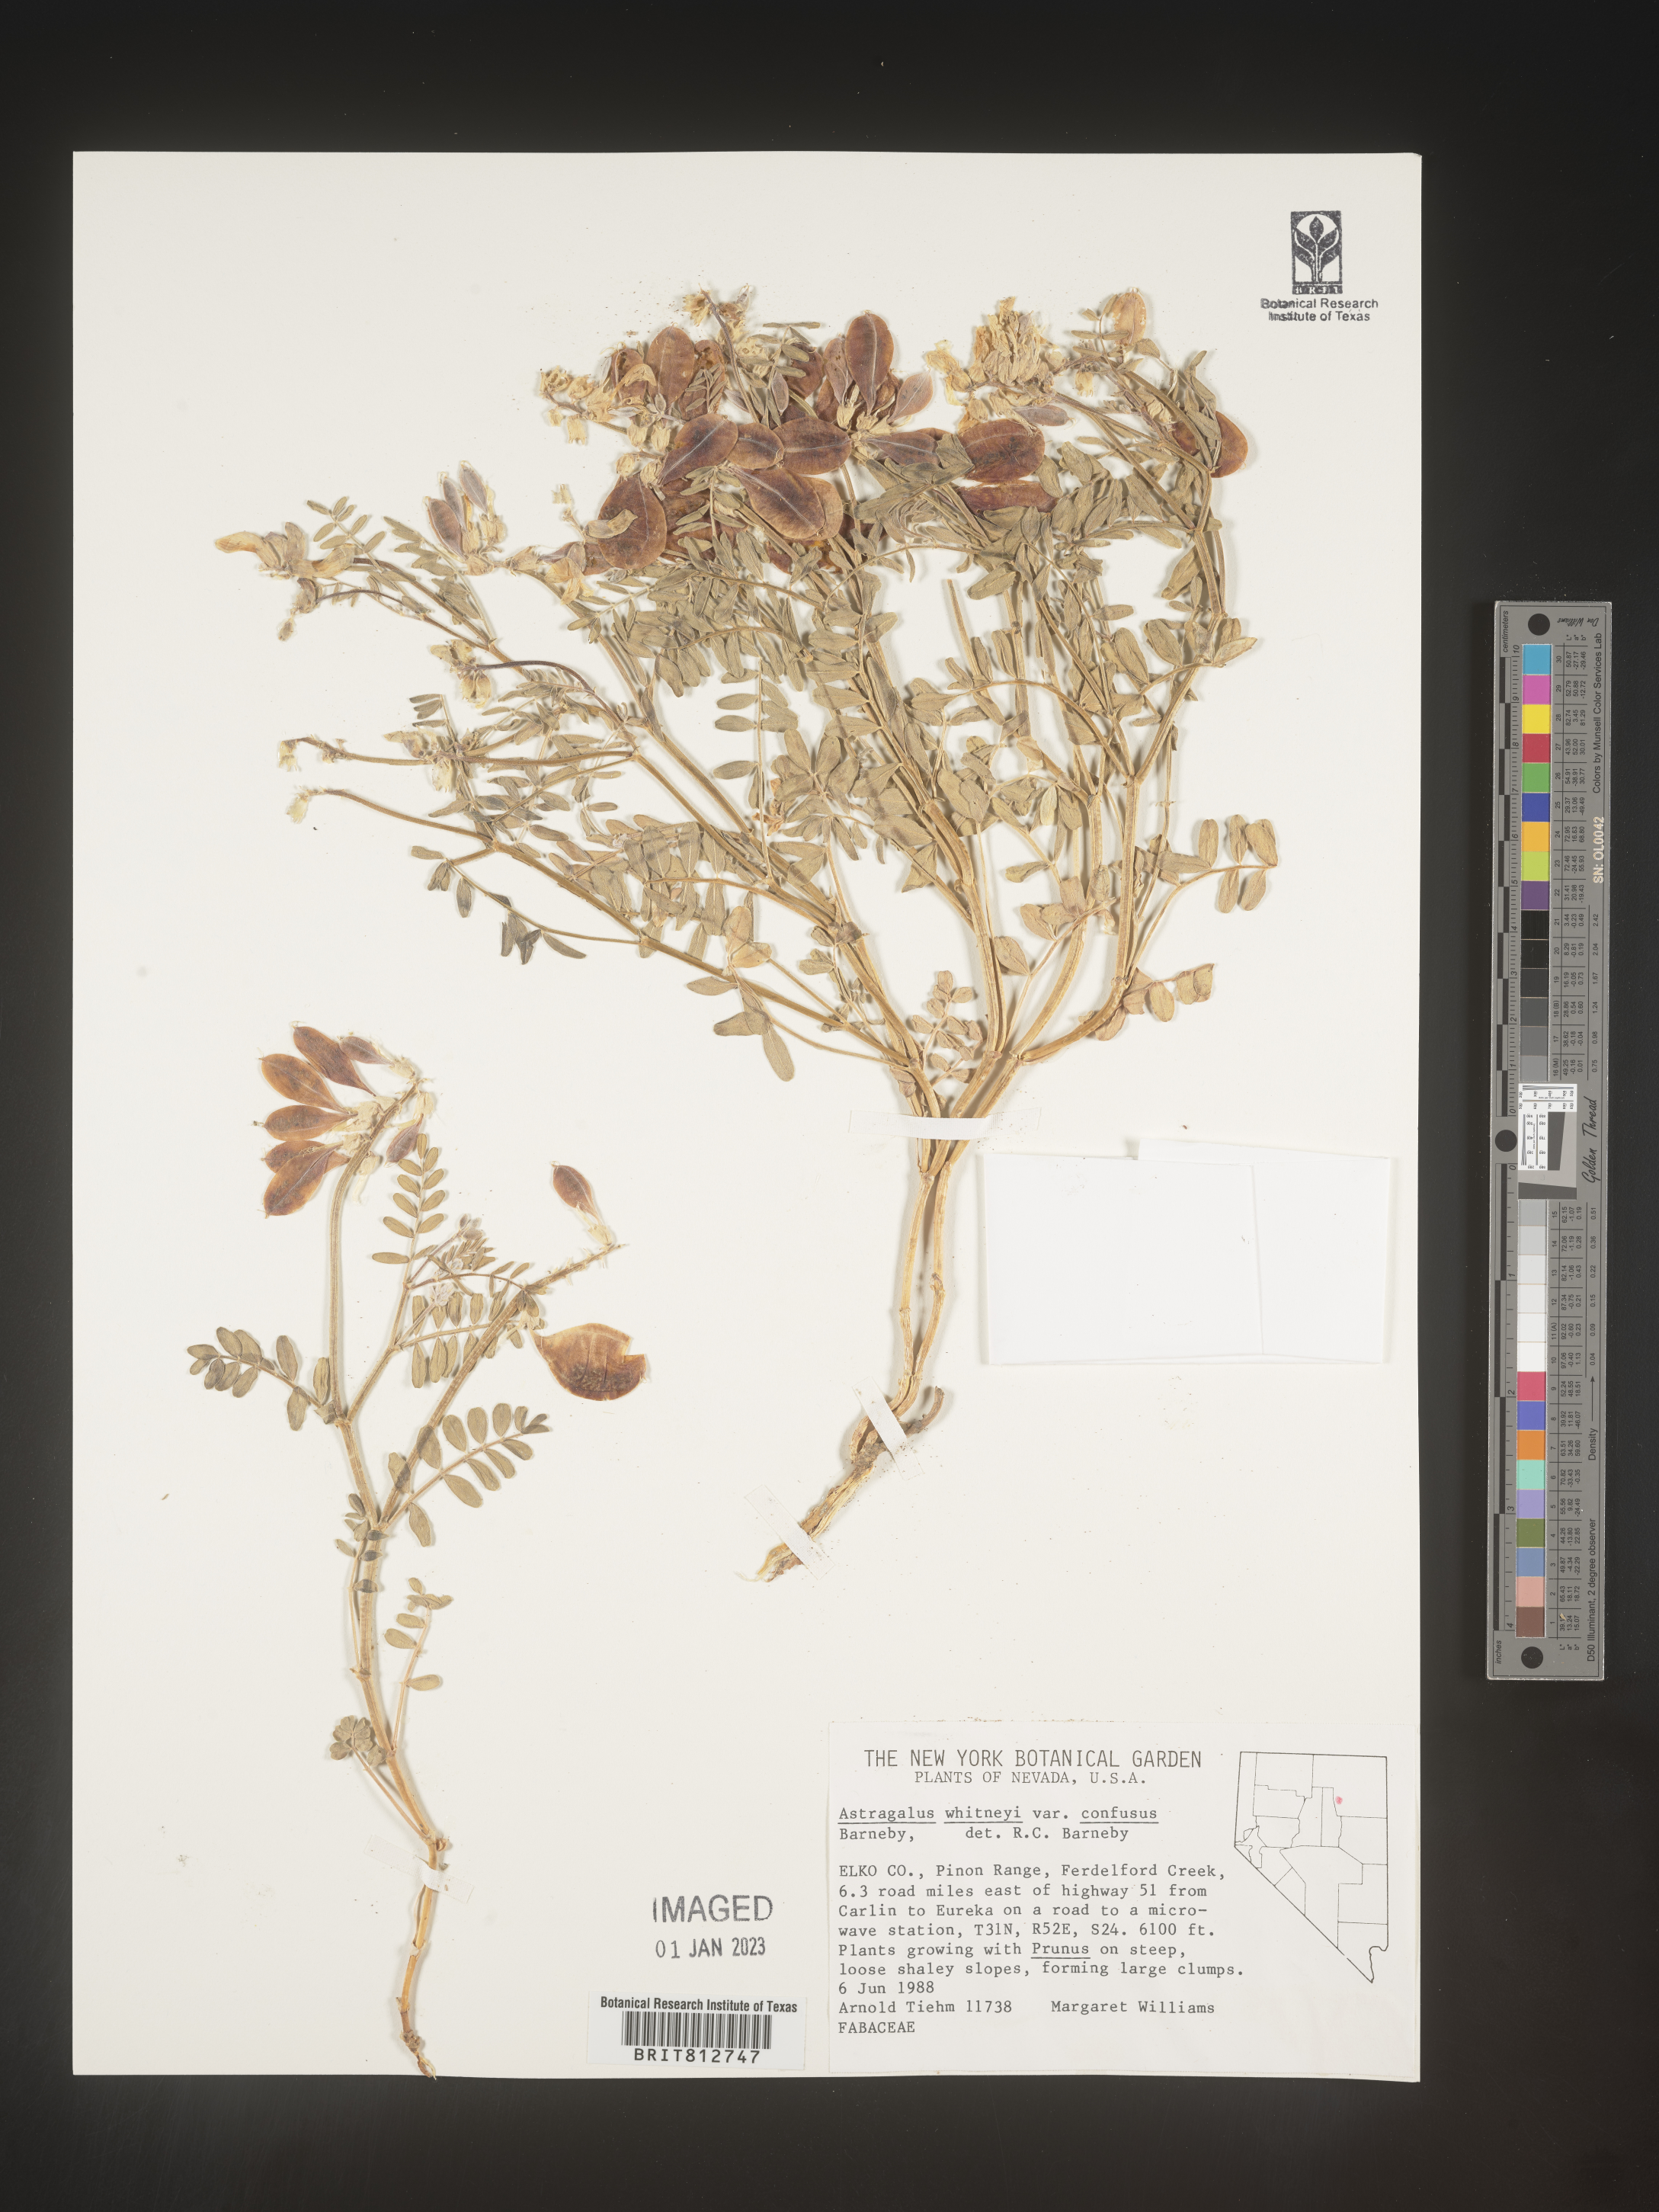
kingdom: Plantae
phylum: Tracheophyta
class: Magnoliopsida
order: Fabales
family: Fabaceae
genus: Astragalus
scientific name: Astragalus
